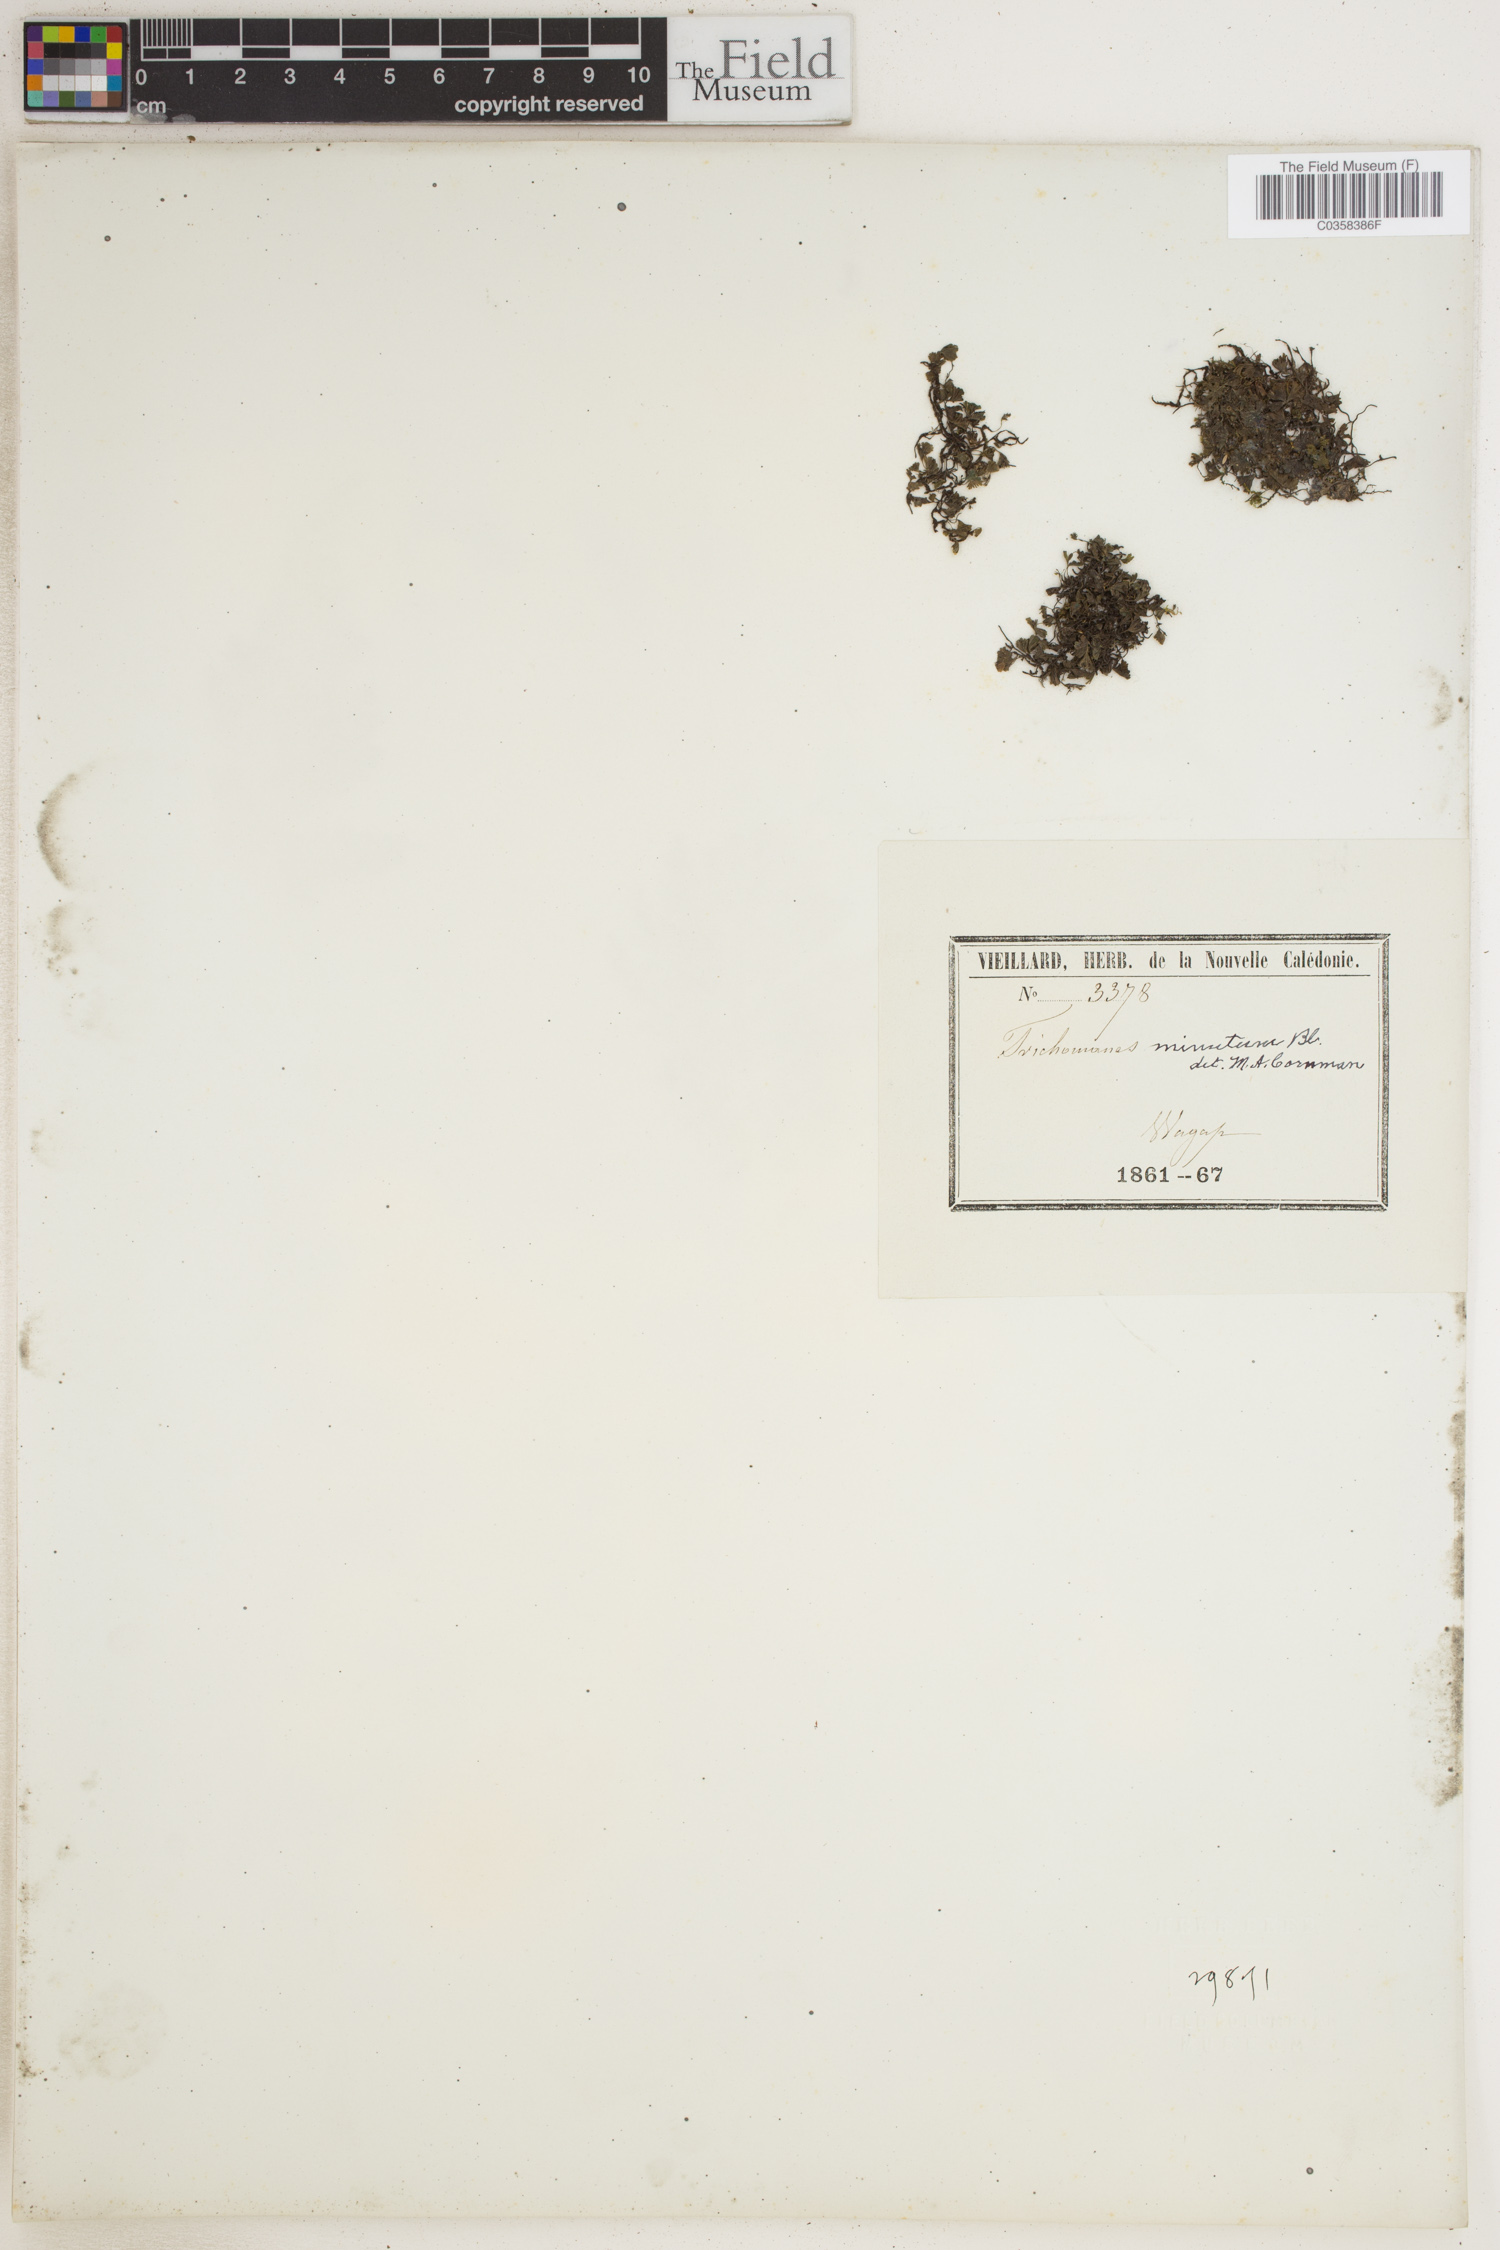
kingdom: Plantae
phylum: Tracheophyta
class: Polypodiopsida
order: Hymenophyllales
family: Hymenophyllaceae
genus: Crepidomanes
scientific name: Crepidomanes parvulum
